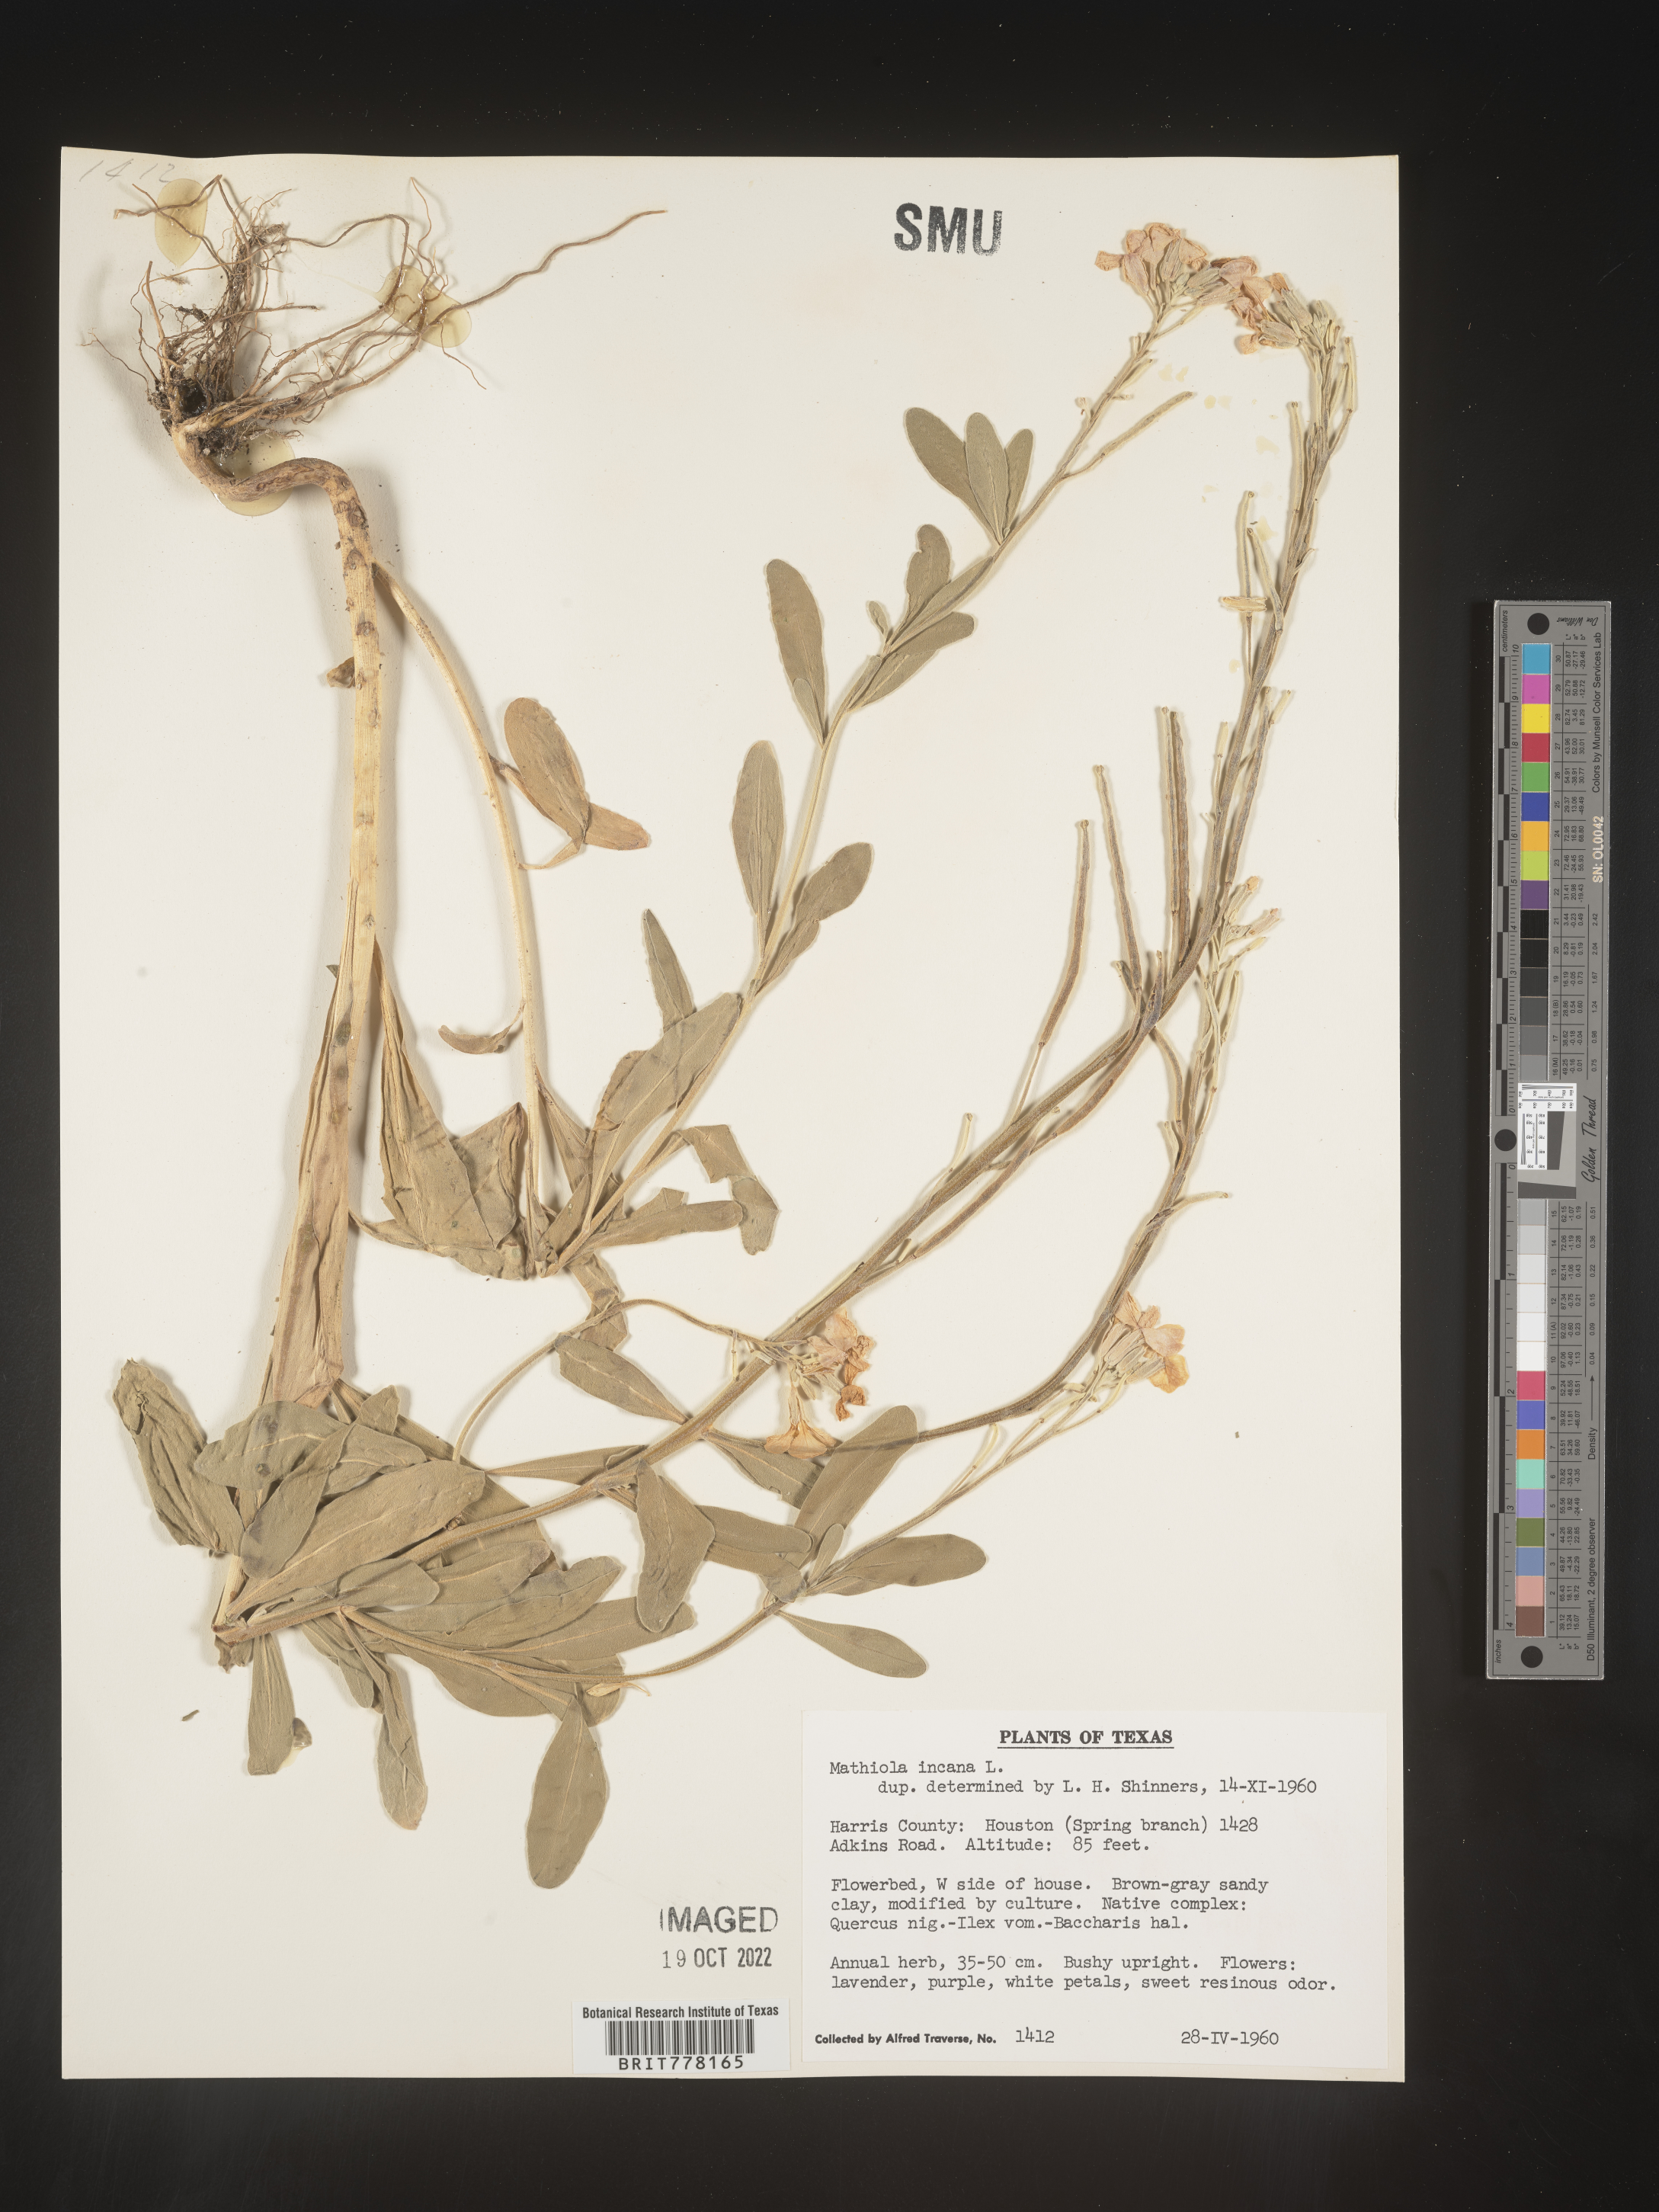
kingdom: Plantae
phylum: Tracheophyta
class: Magnoliopsida
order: Brassicales
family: Brassicaceae
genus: Matthiola
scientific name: Matthiola
